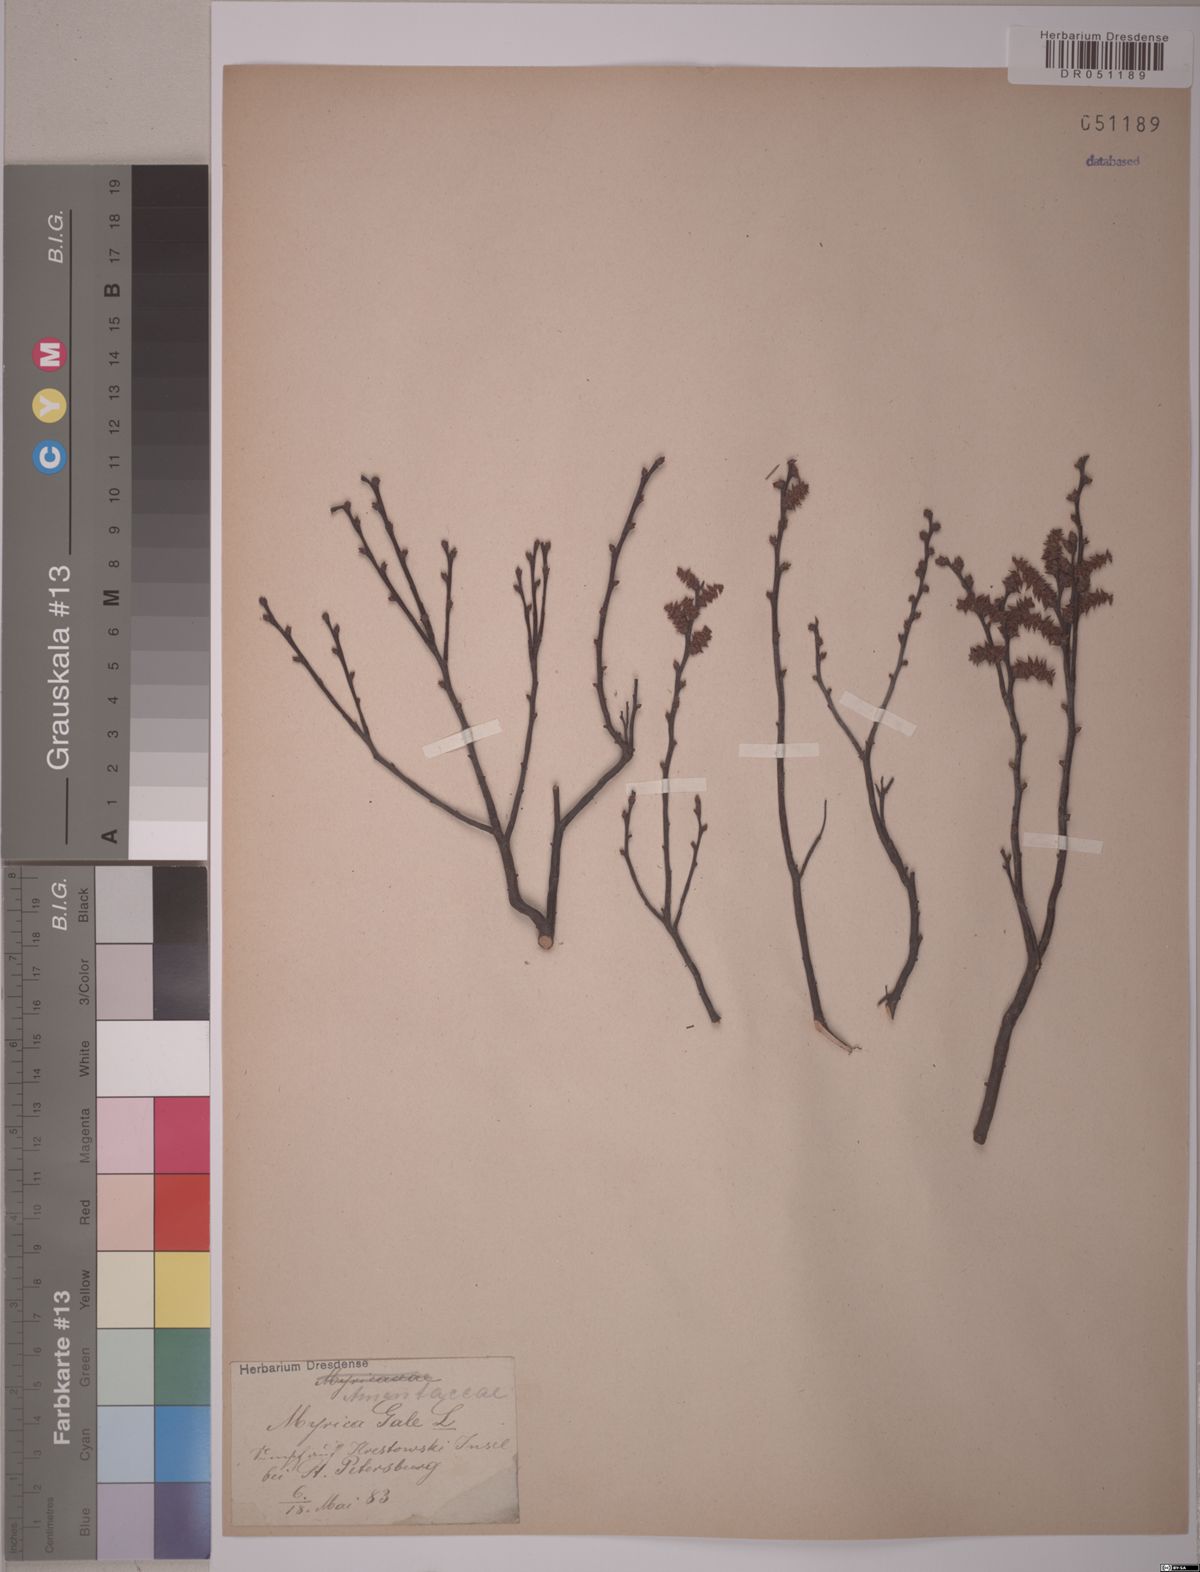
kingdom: Plantae
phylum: Tracheophyta
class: Magnoliopsida
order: Fagales
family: Myricaceae
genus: Myrica
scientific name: Myrica gale
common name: Sweet gale
